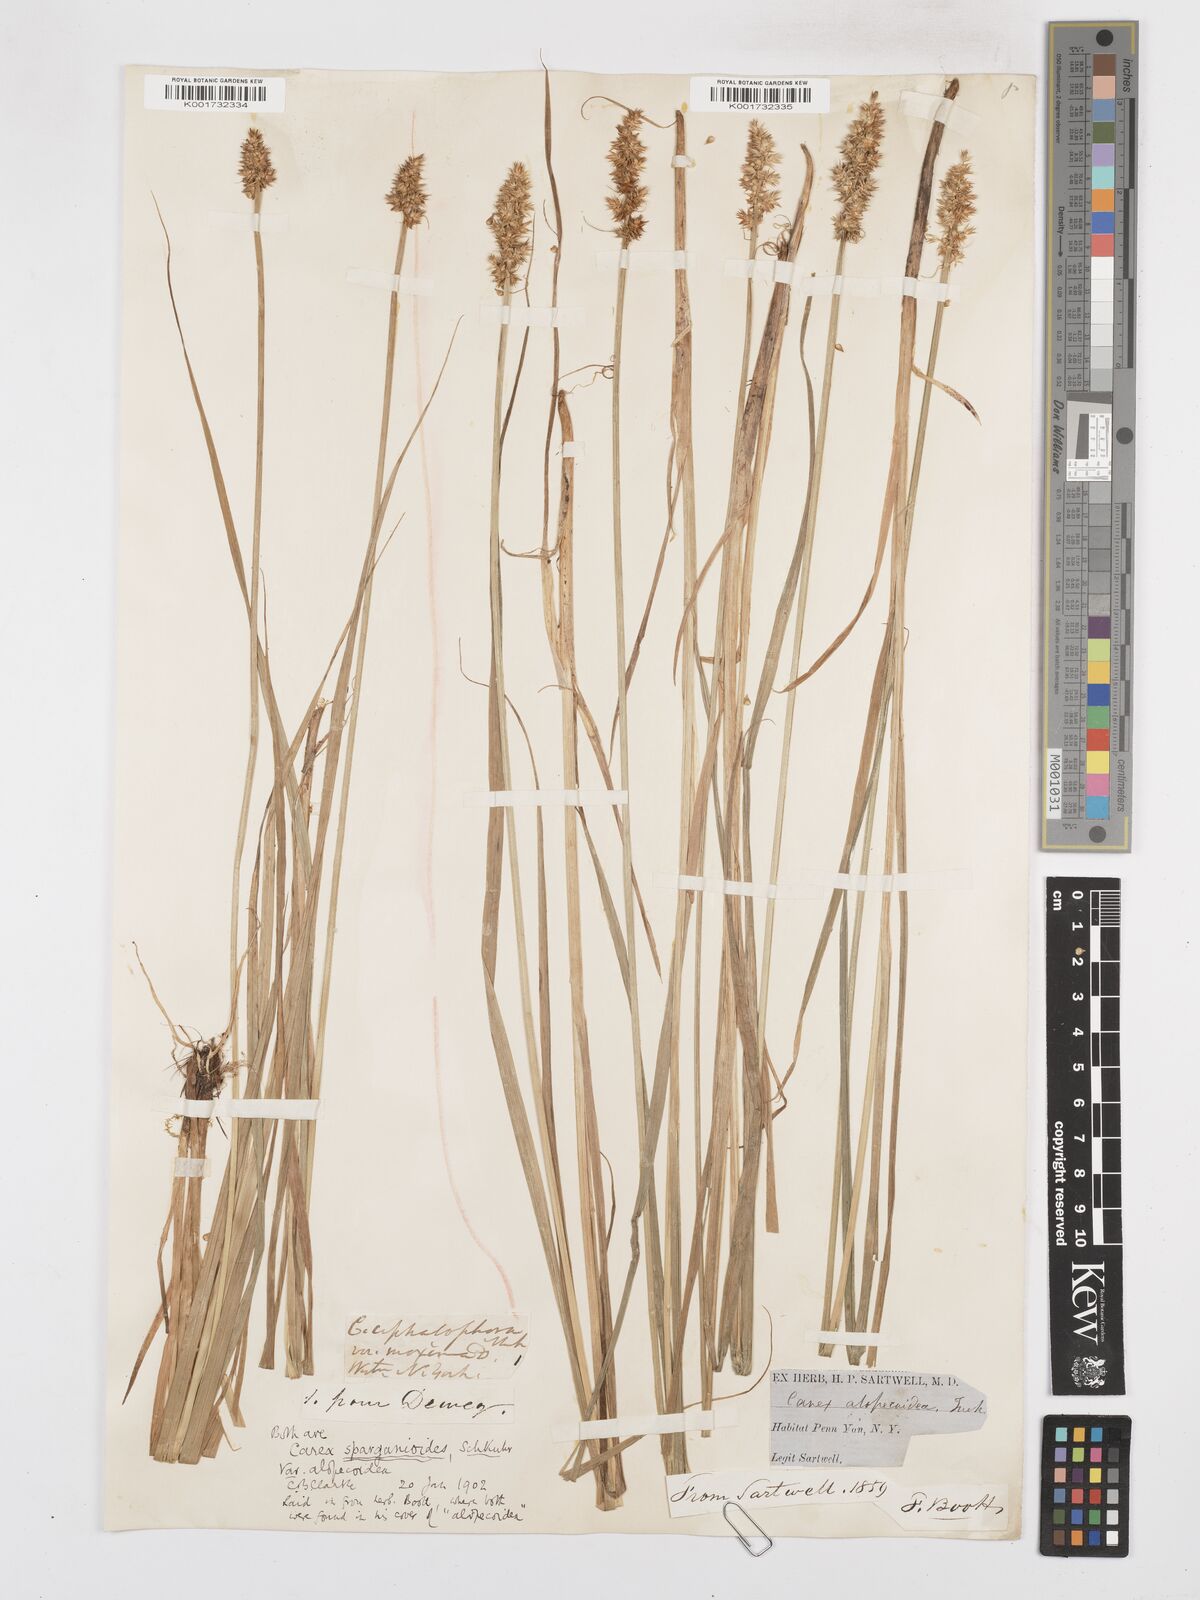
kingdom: Plantae
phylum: Tracheophyta
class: Liliopsida
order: Poales
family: Cyperaceae
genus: Carex
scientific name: Carex sparganioides
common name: Burreed sedge
